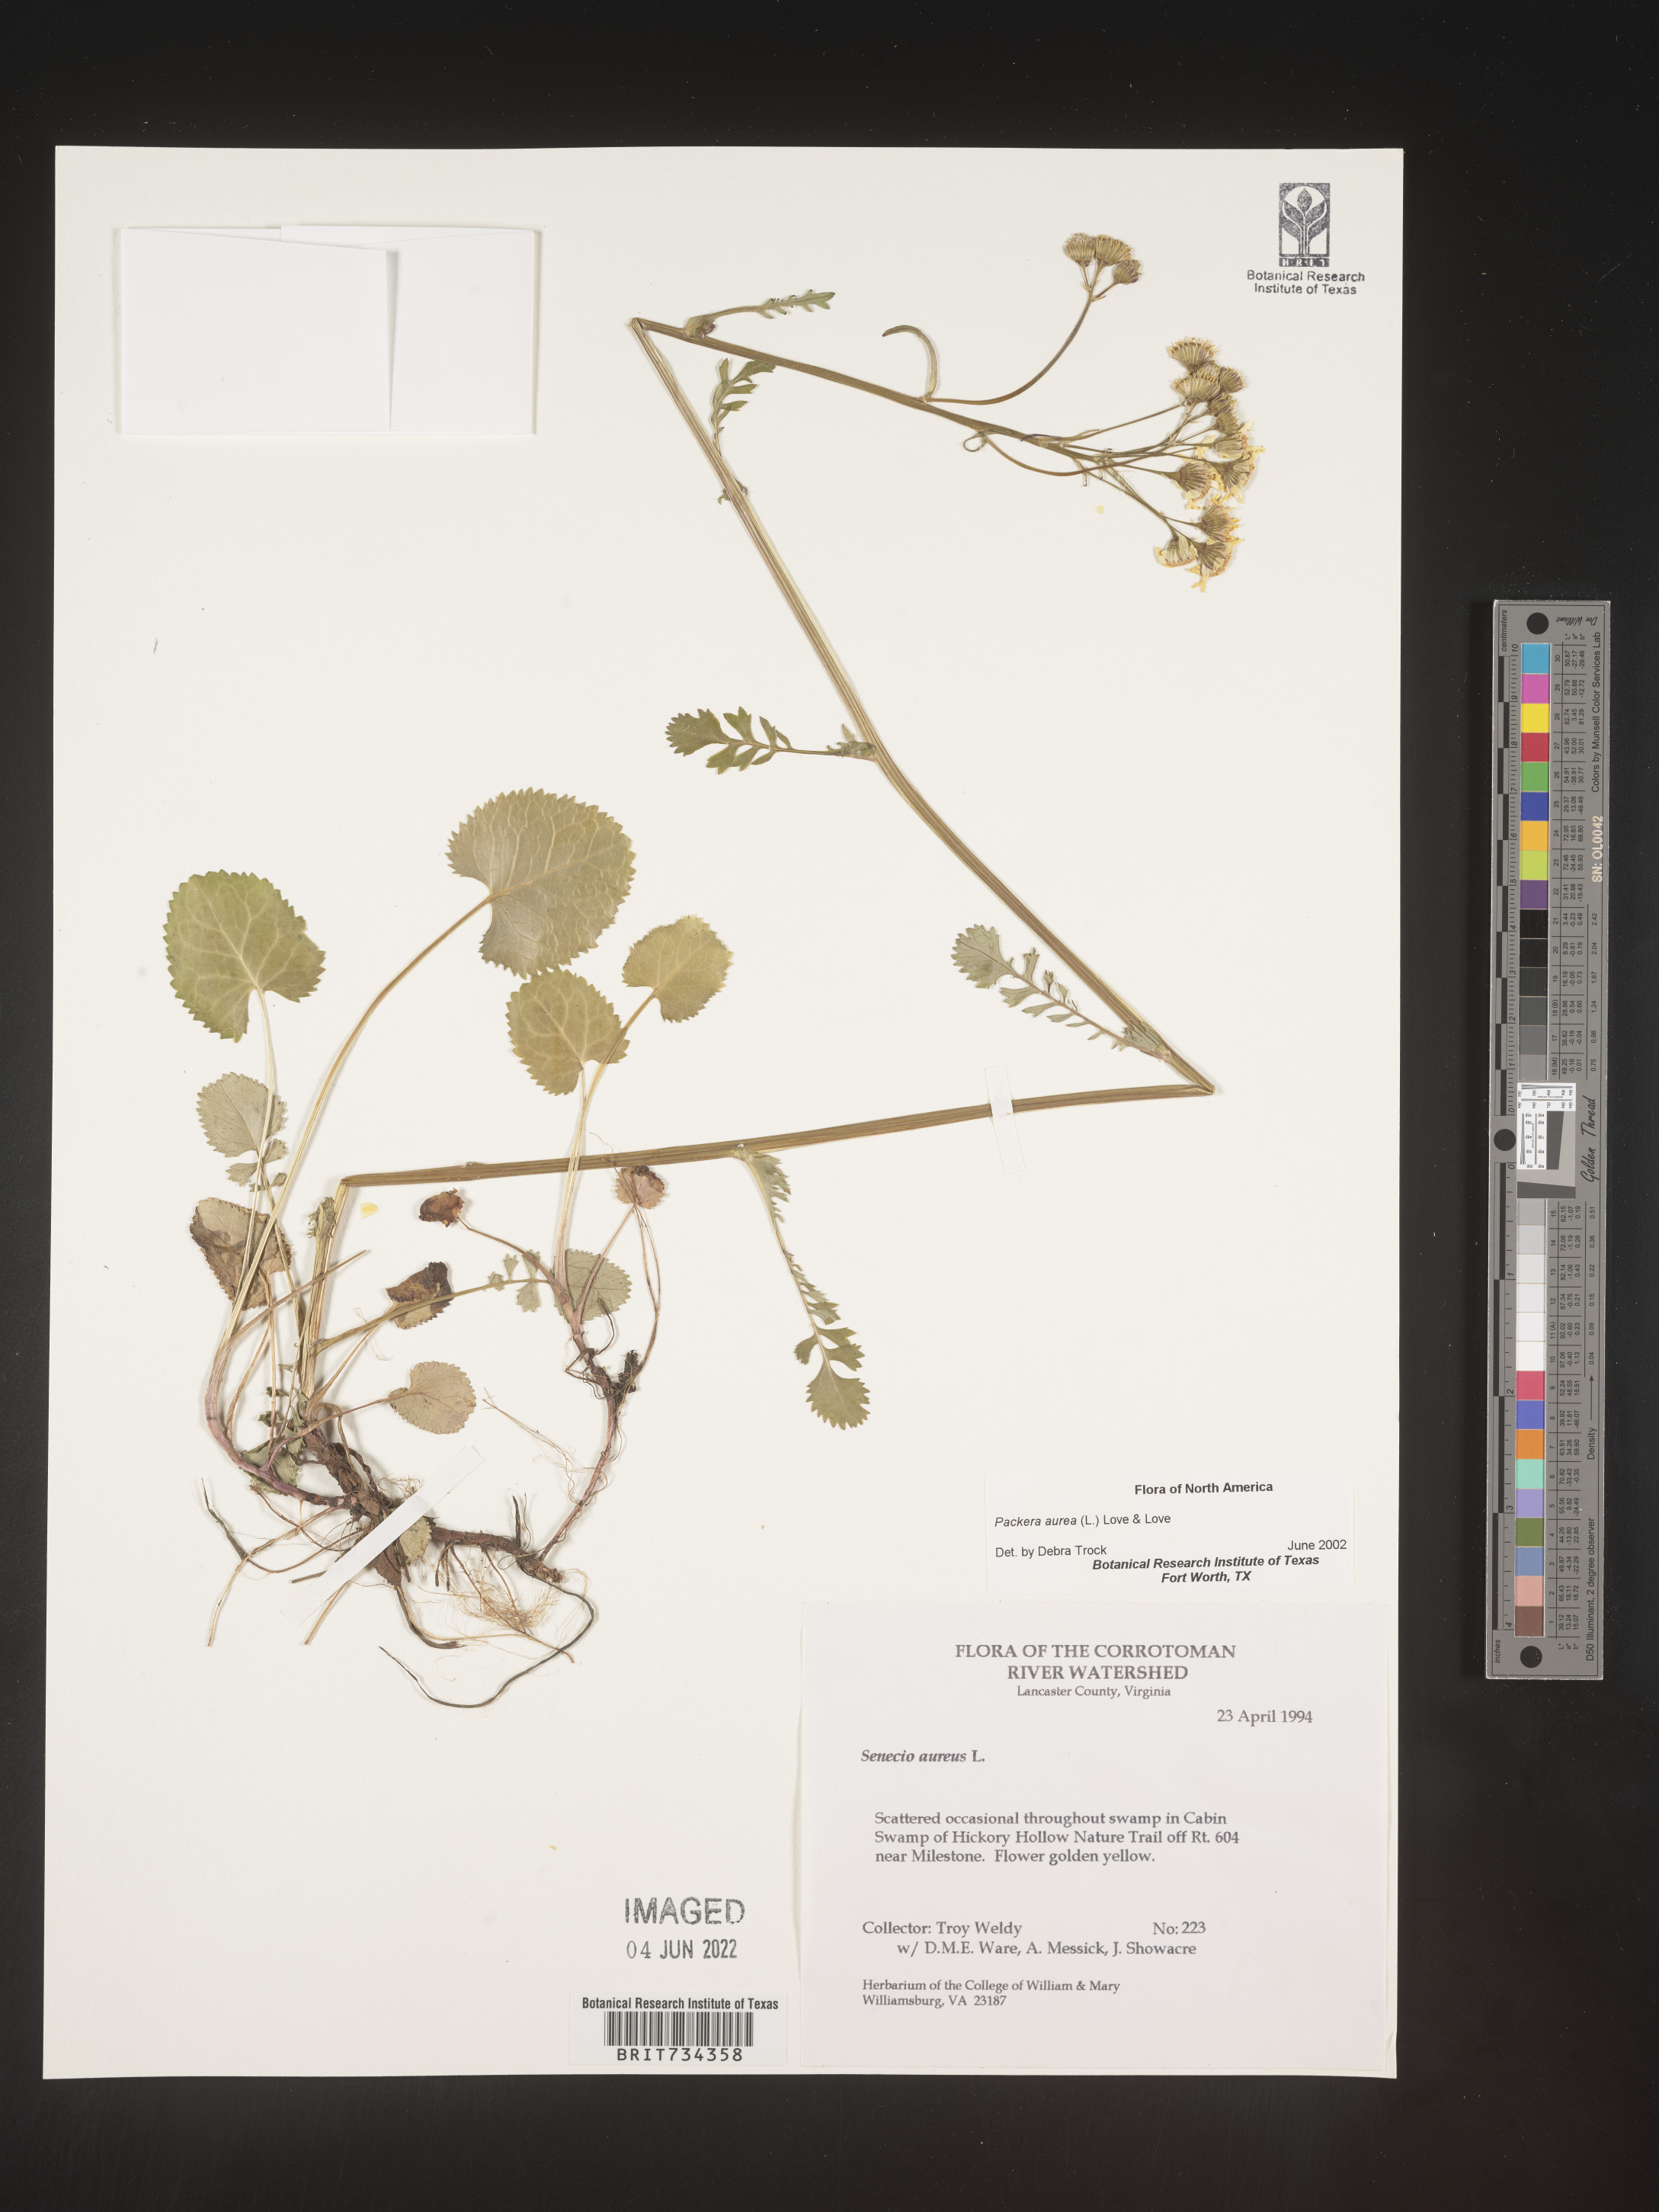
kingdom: Plantae
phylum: Tracheophyta
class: Magnoliopsida
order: Asterales
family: Asteraceae
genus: Packera
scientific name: Packera aurea
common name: Golden groundsel
